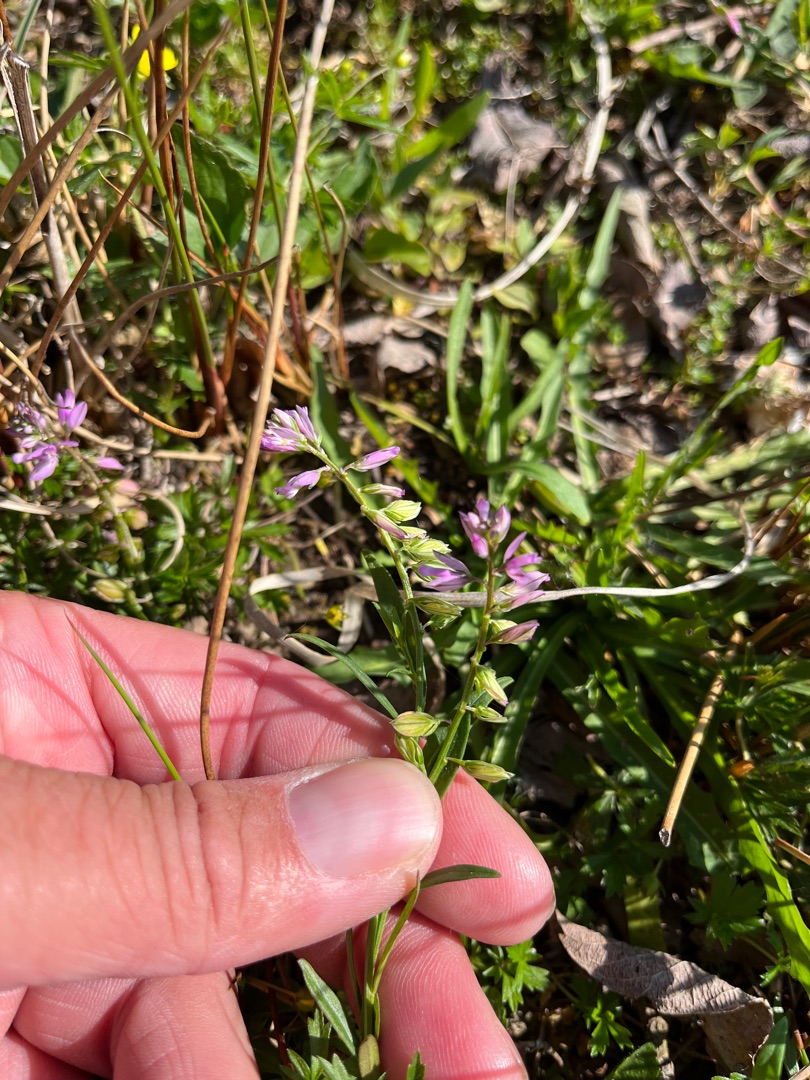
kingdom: Plantae
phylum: Tracheophyta
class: Magnoliopsida
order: Fabales
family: Polygalaceae
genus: Polygala
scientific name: Polygala vulgaris
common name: Almindelig mælkeurt
